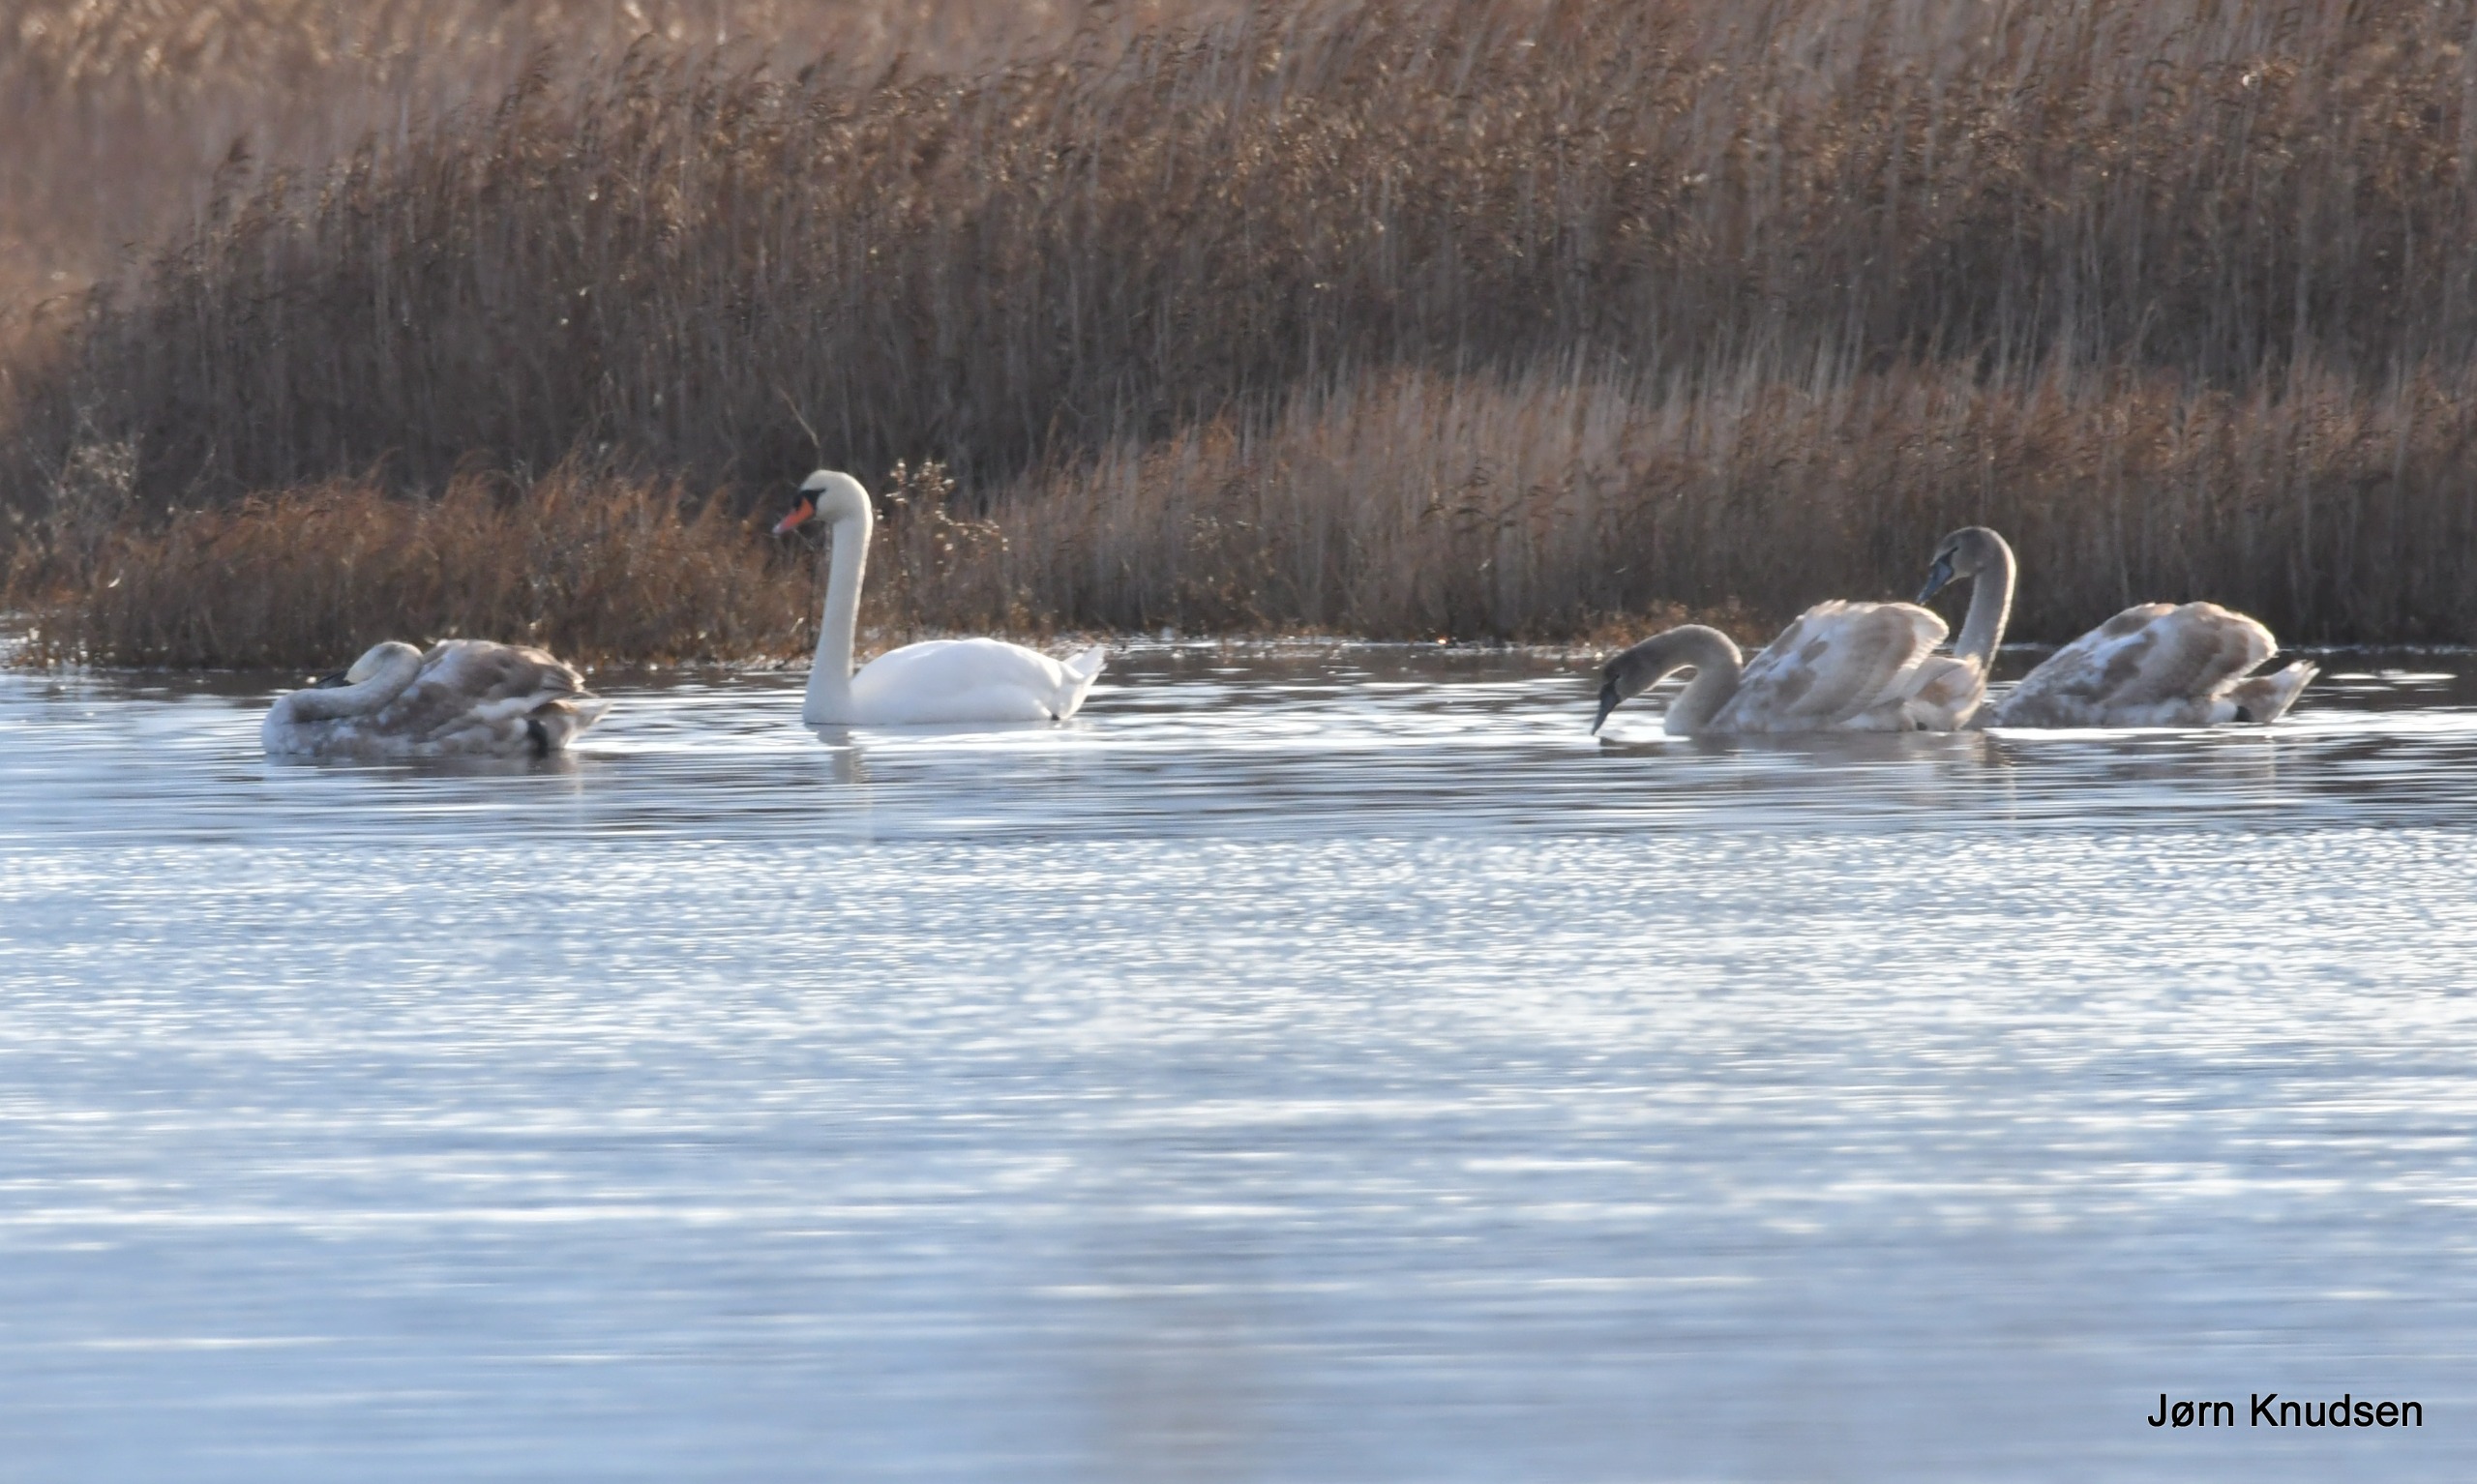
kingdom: Animalia
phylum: Chordata
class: Aves
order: Anseriformes
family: Anatidae
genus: Cygnus
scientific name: Cygnus olor
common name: Knopsvane
